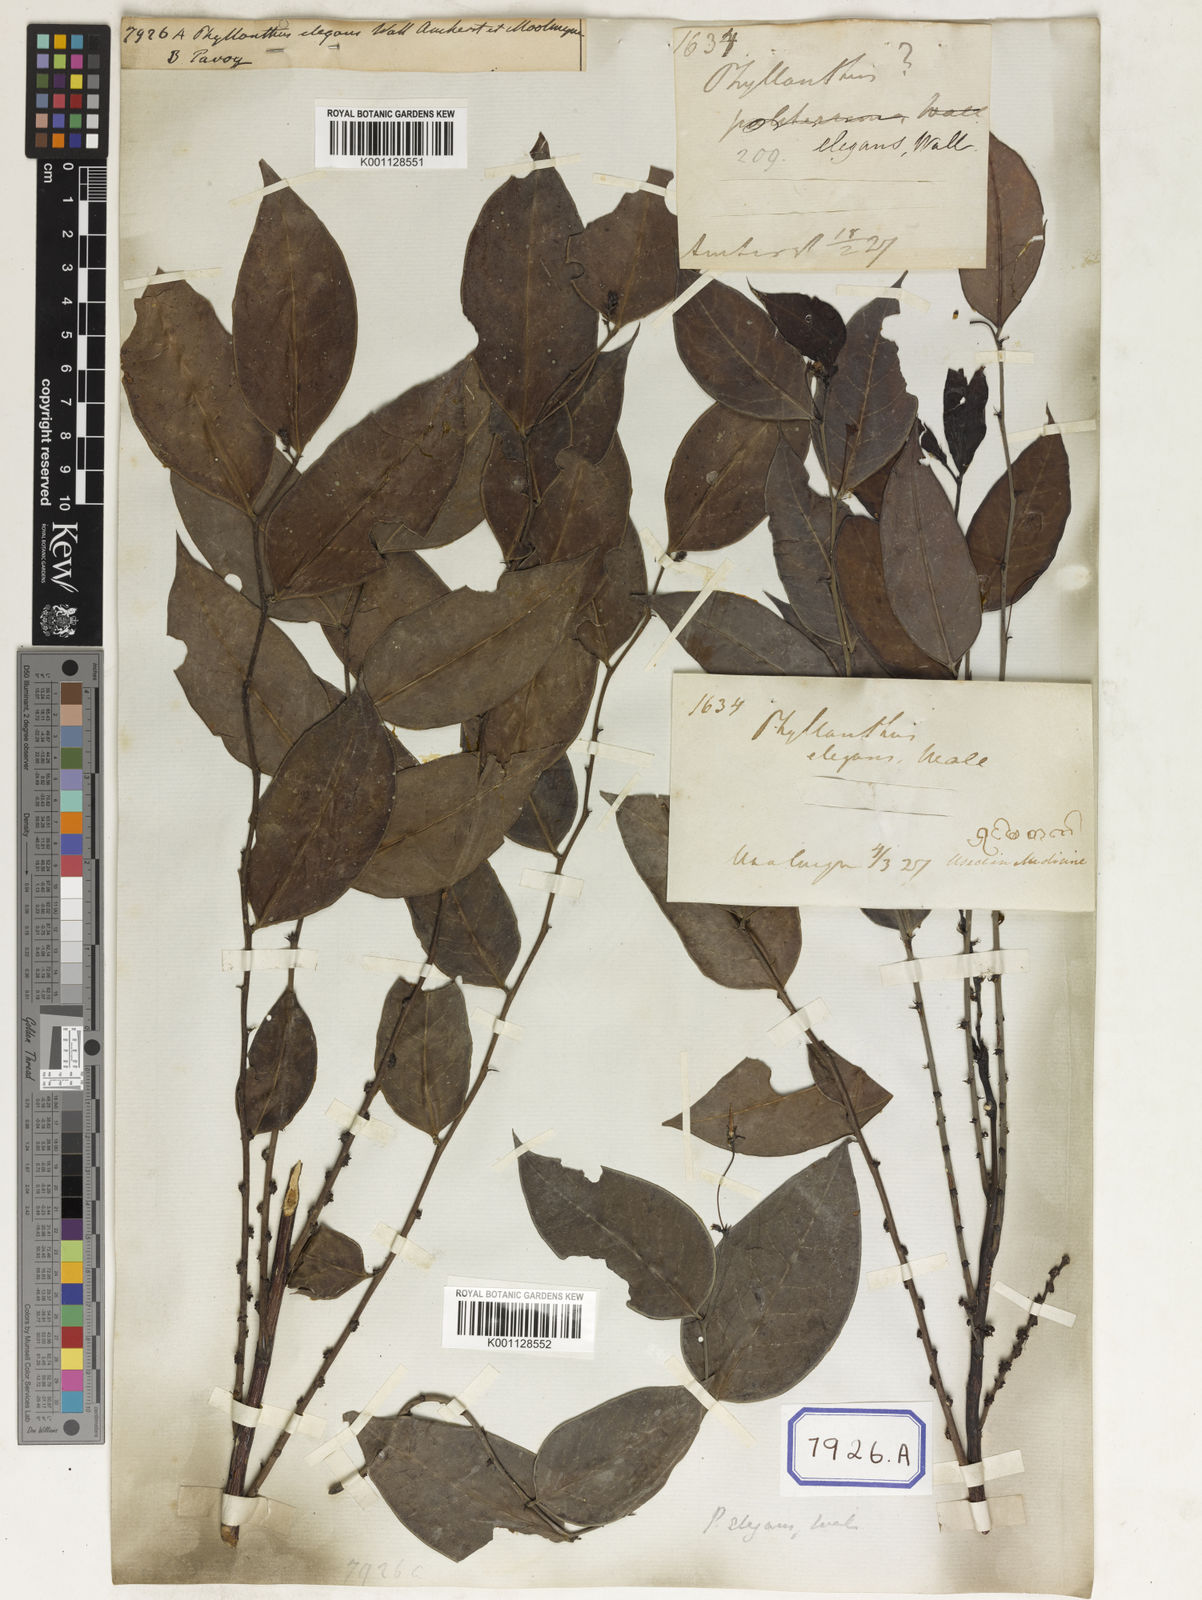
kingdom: Plantae
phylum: Tracheophyta
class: Magnoliopsida
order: Malpighiales
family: Phyllanthaceae
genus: Phyllanthus
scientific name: Phyllanthus
